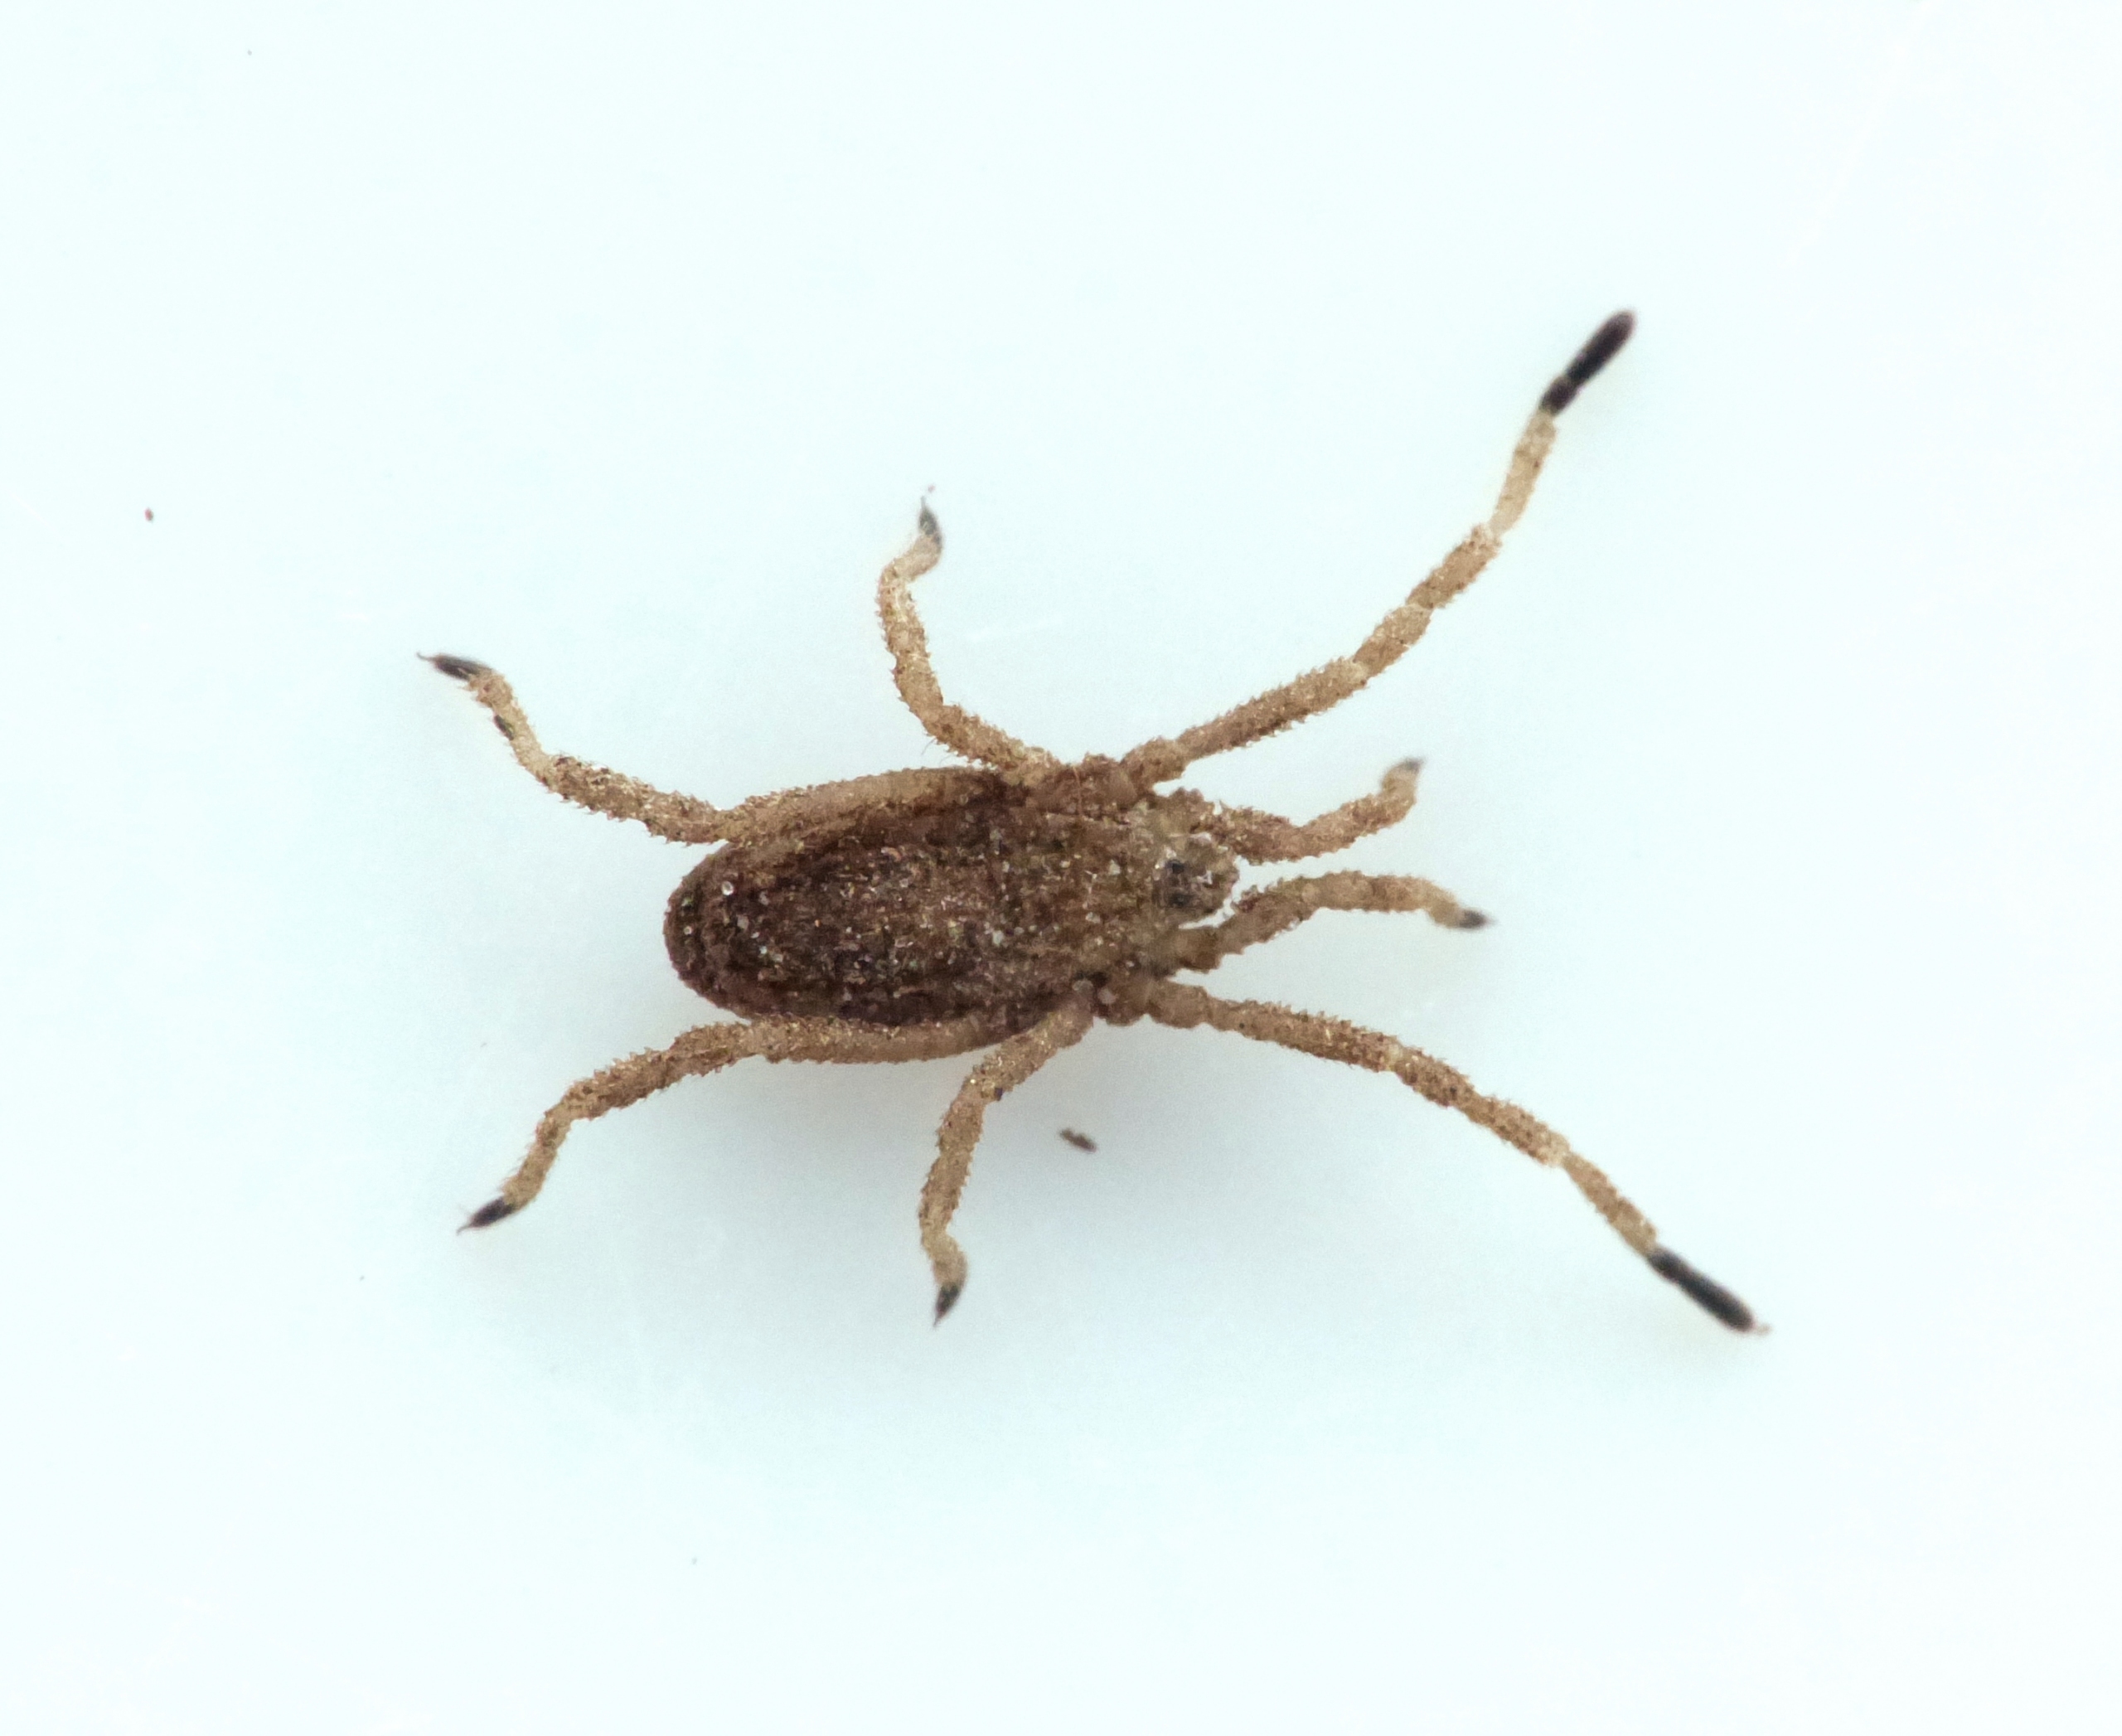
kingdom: Animalia
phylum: Arthropoda
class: Arachnida
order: Opiliones
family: Trogulidae
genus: Trogulus
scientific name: Trogulus tricarinatus
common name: Sneglemejer
